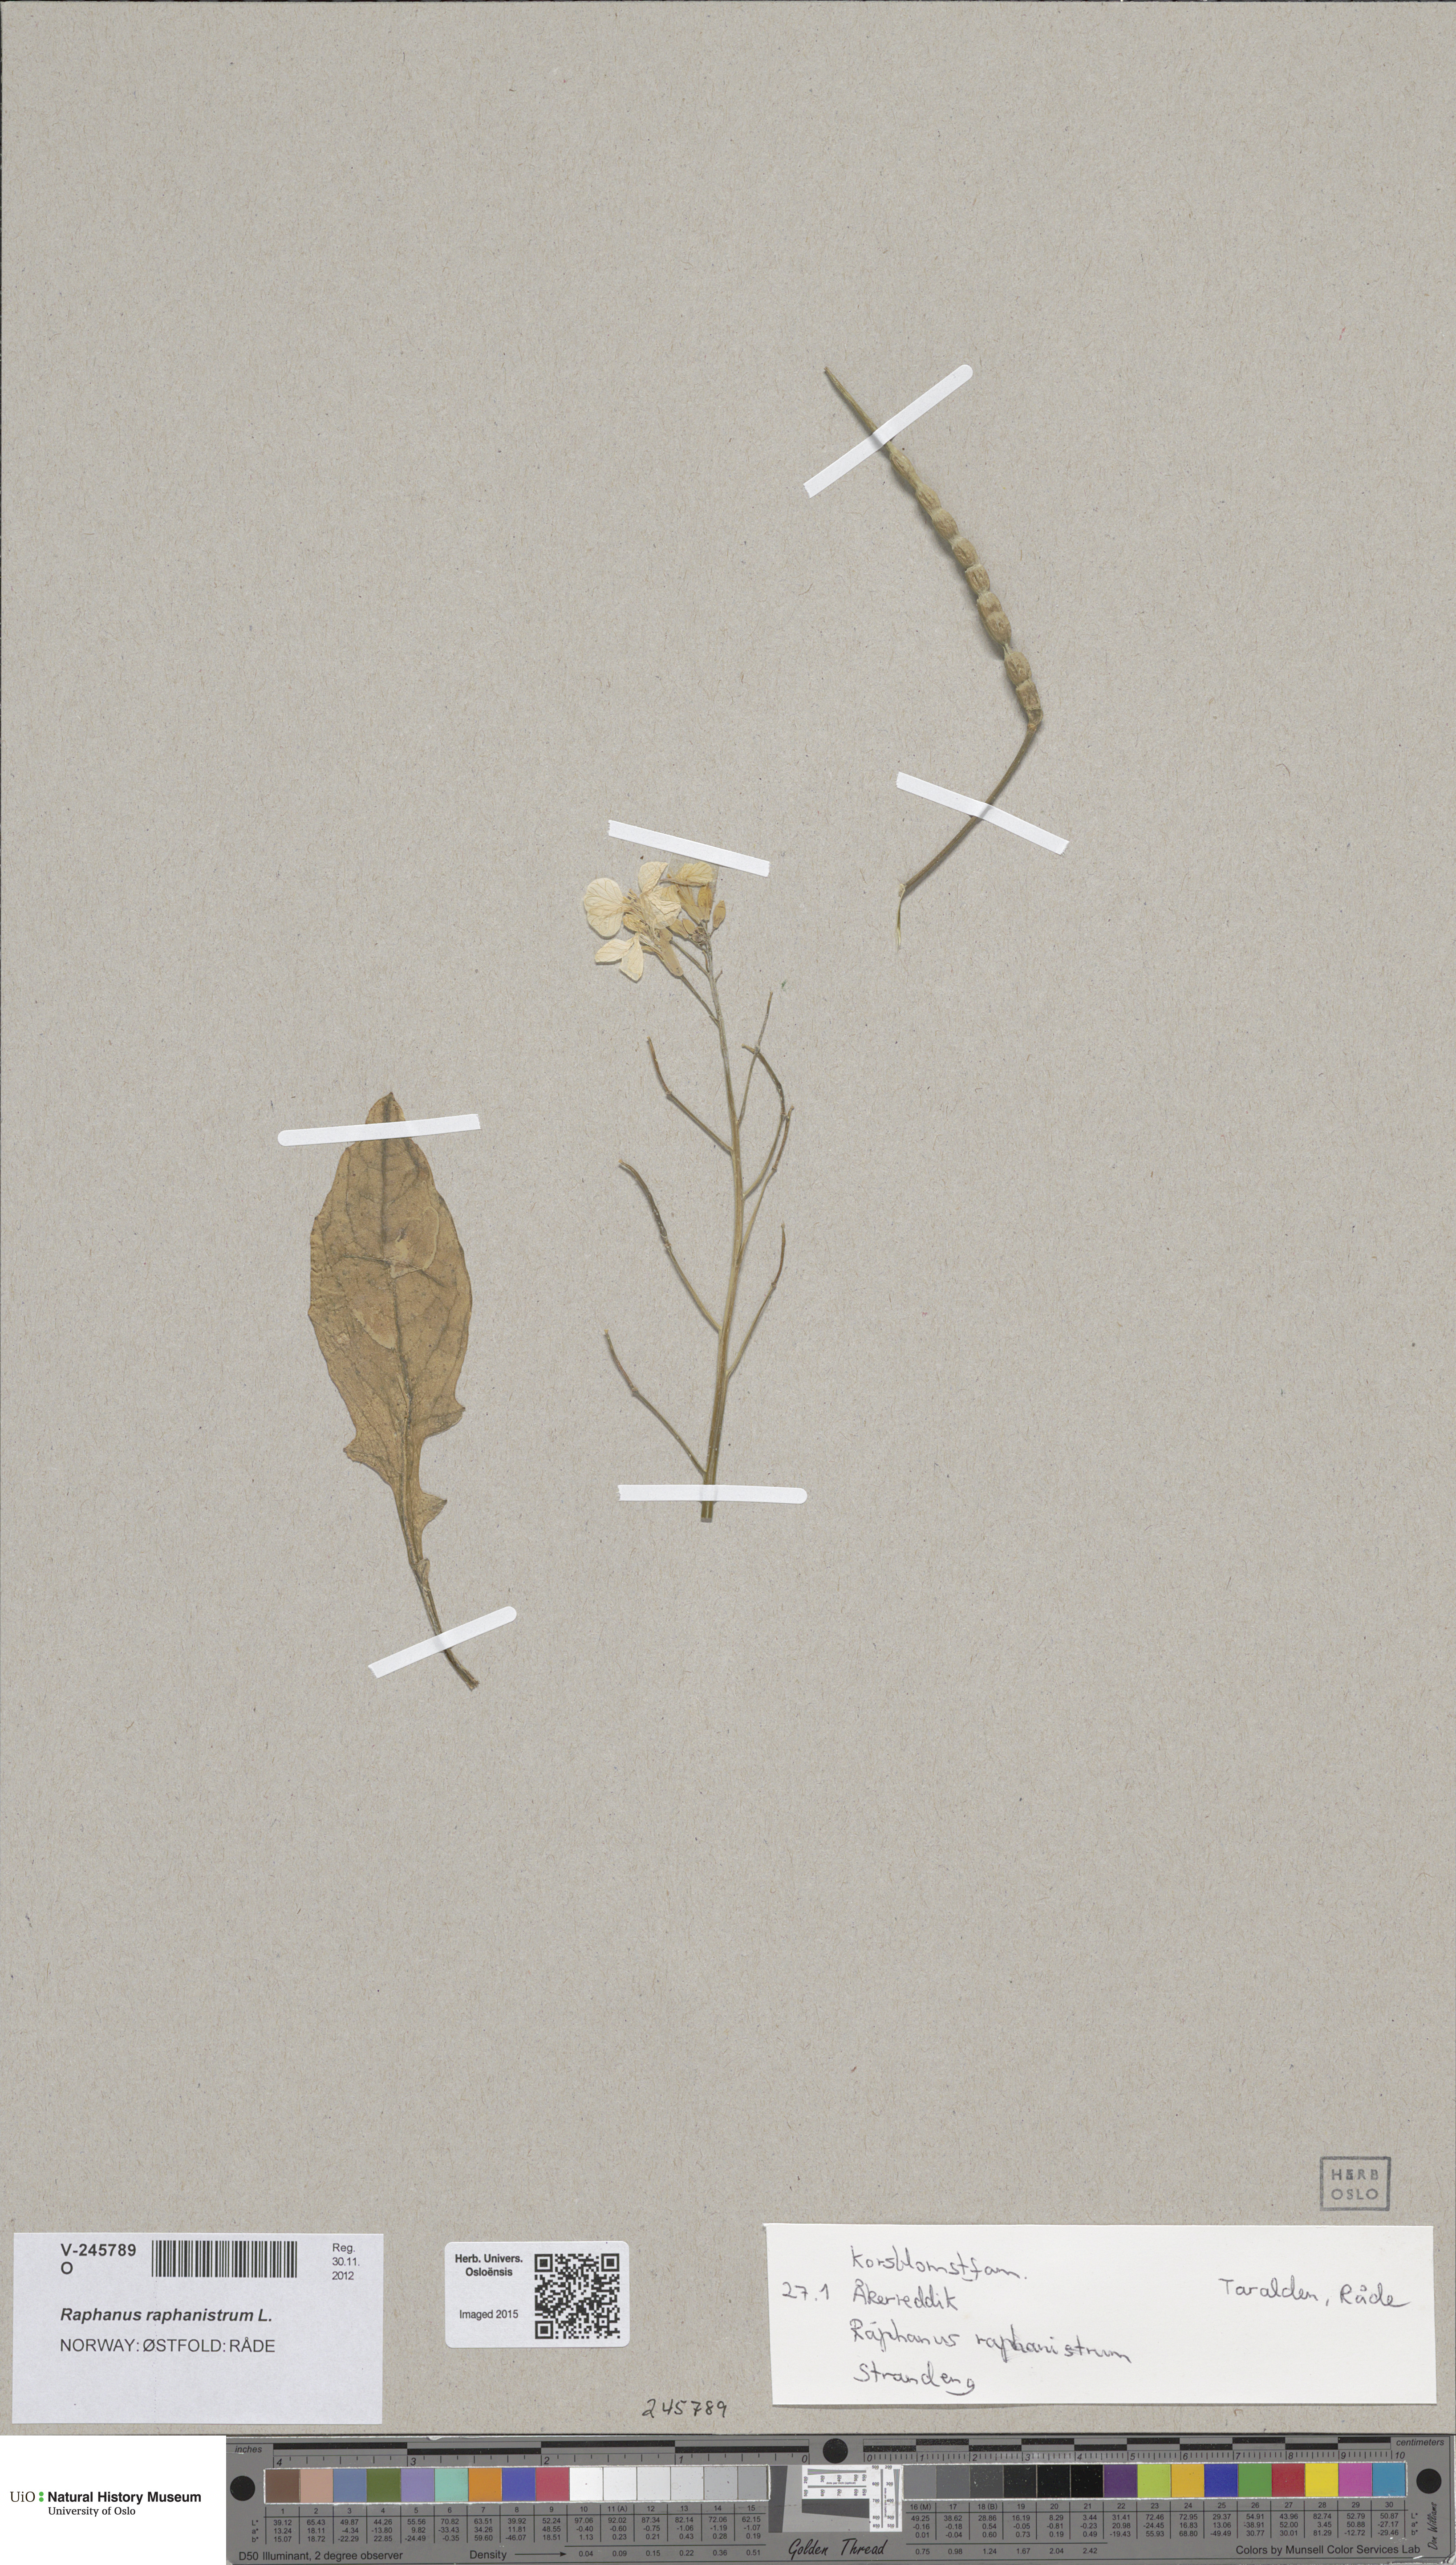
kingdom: Plantae
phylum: Tracheophyta
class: Magnoliopsida
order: Brassicales
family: Brassicaceae
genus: Raphanus
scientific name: Raphanus raphanistrum
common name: Wild radish
